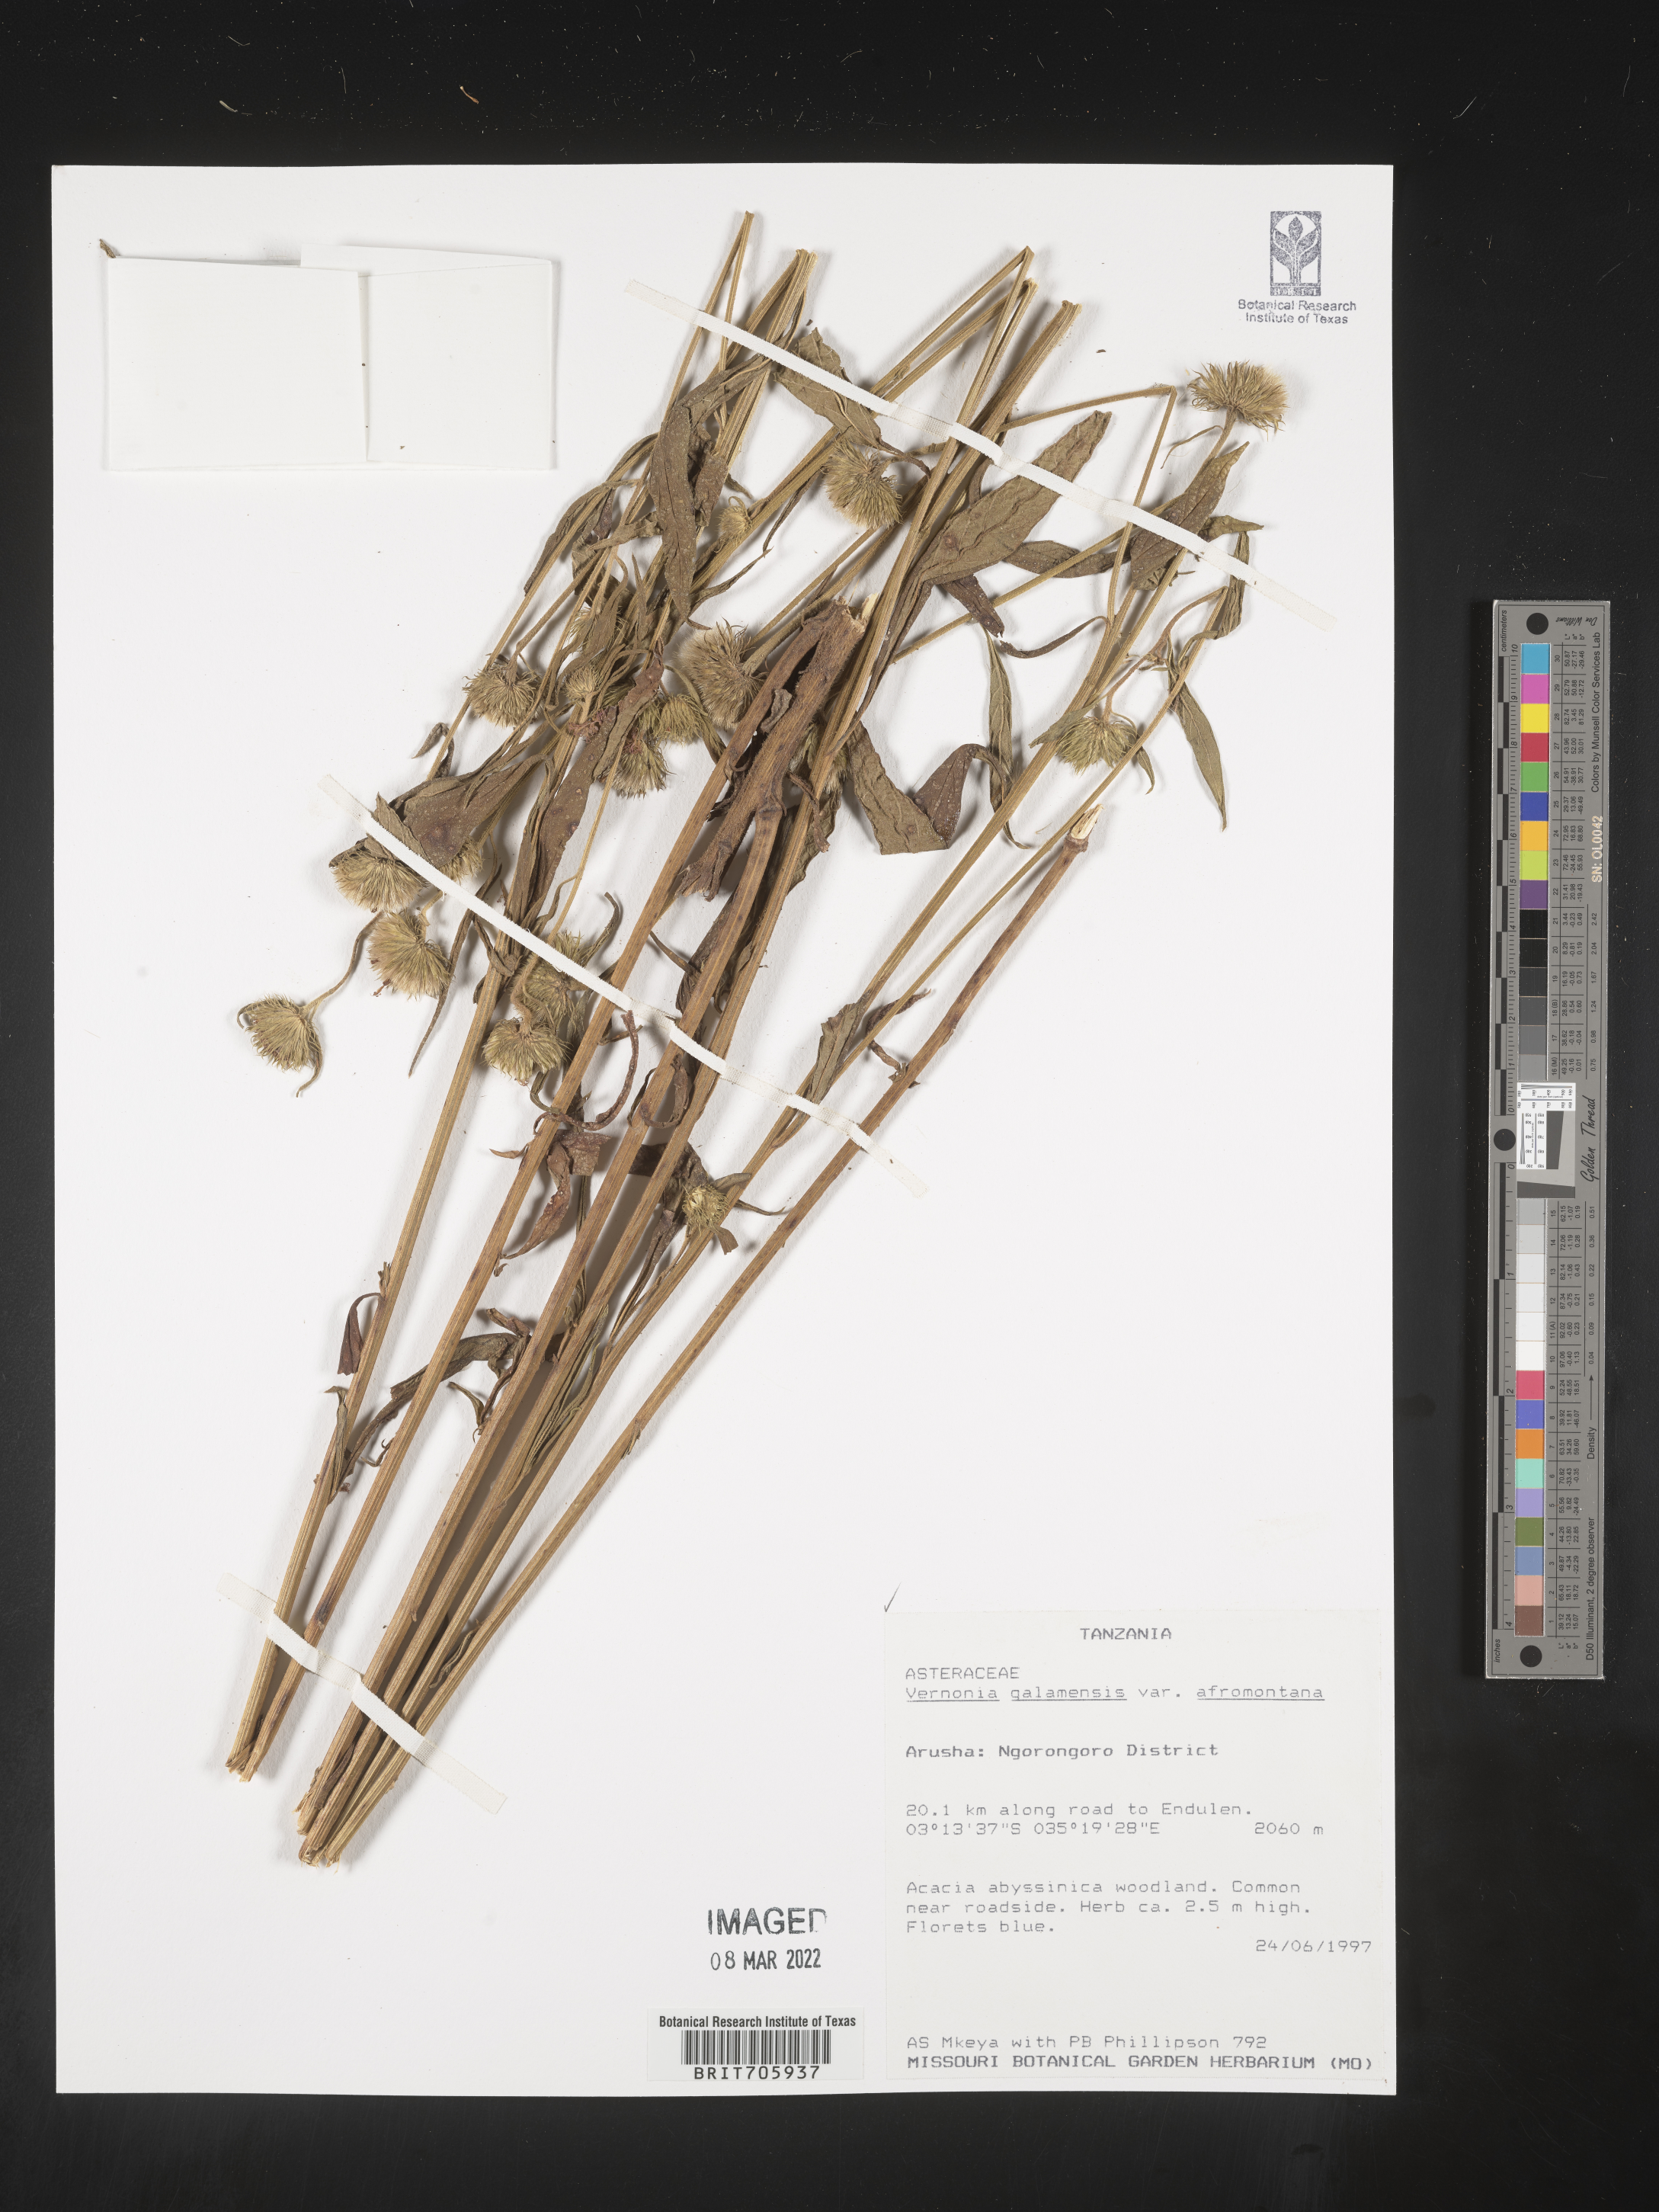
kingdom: Plantae
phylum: Tracheophyta
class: Magnoliopsida
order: Asterales
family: Asteraceae
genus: Vernonia
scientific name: Vernonia
